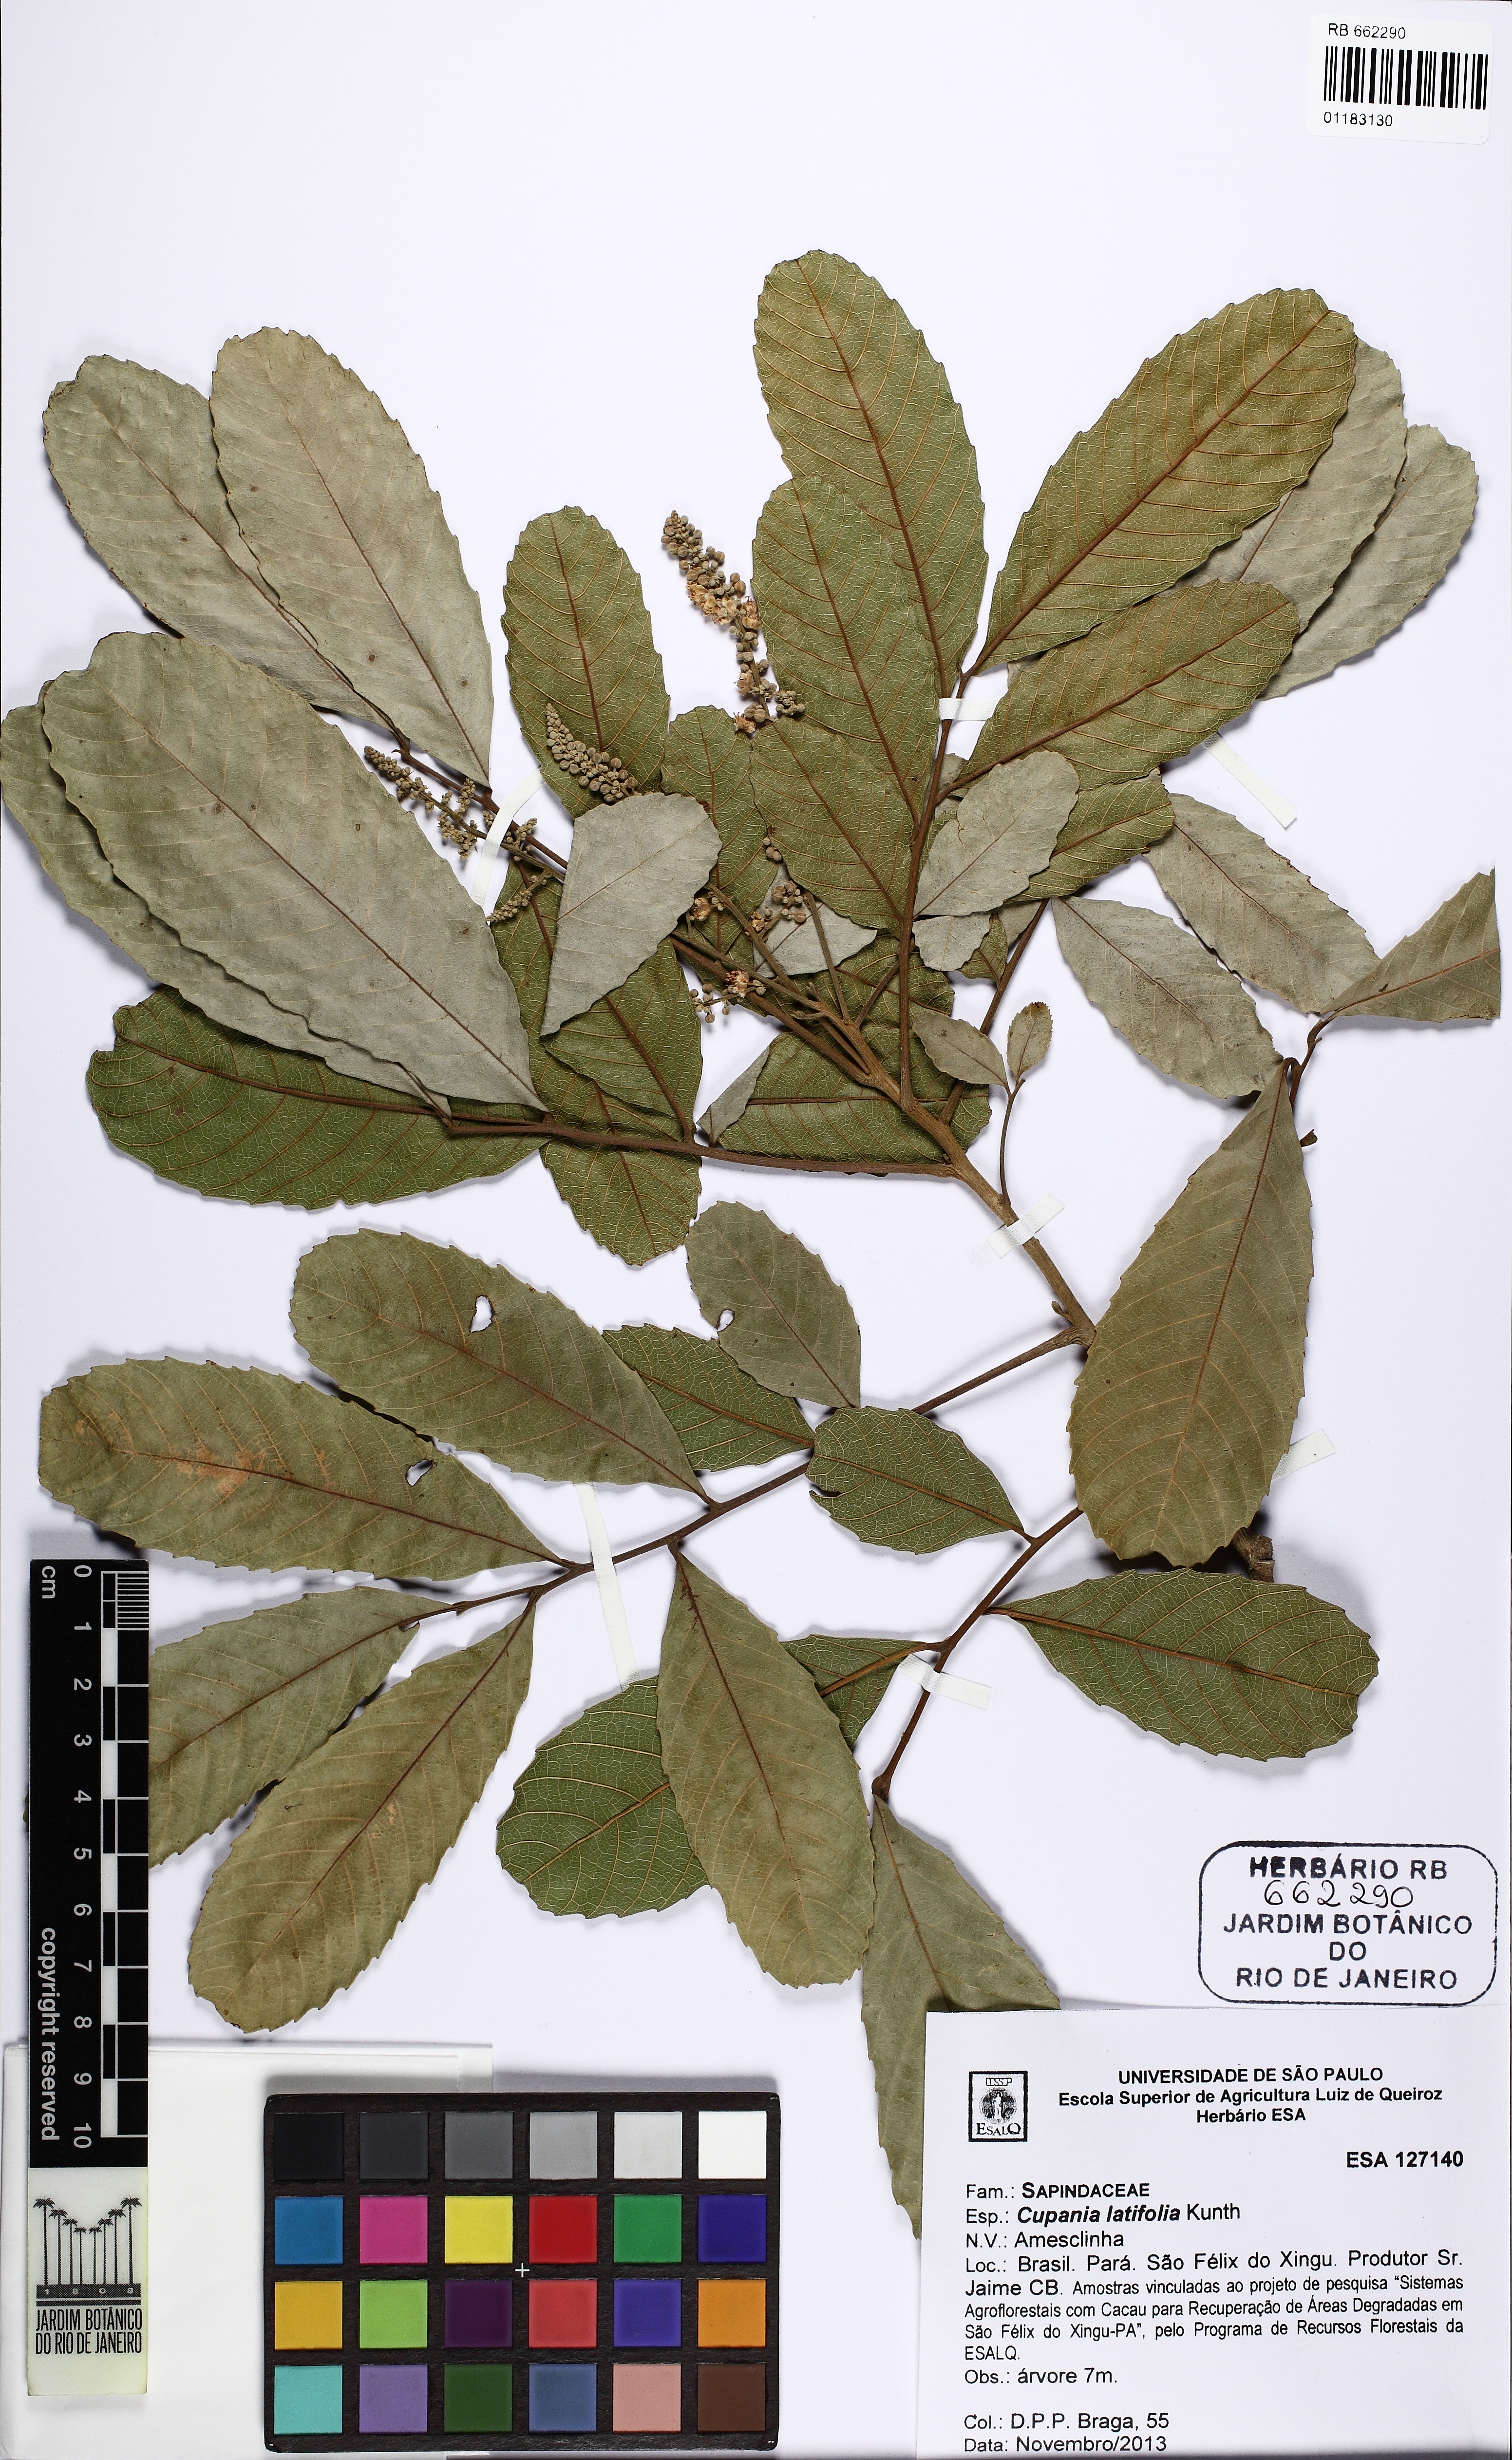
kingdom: Plantae
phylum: Tracheophyta
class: Magnoliopsida
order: Sapindales
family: Sapindaceae
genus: Cupania
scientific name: Cupania latifolia
